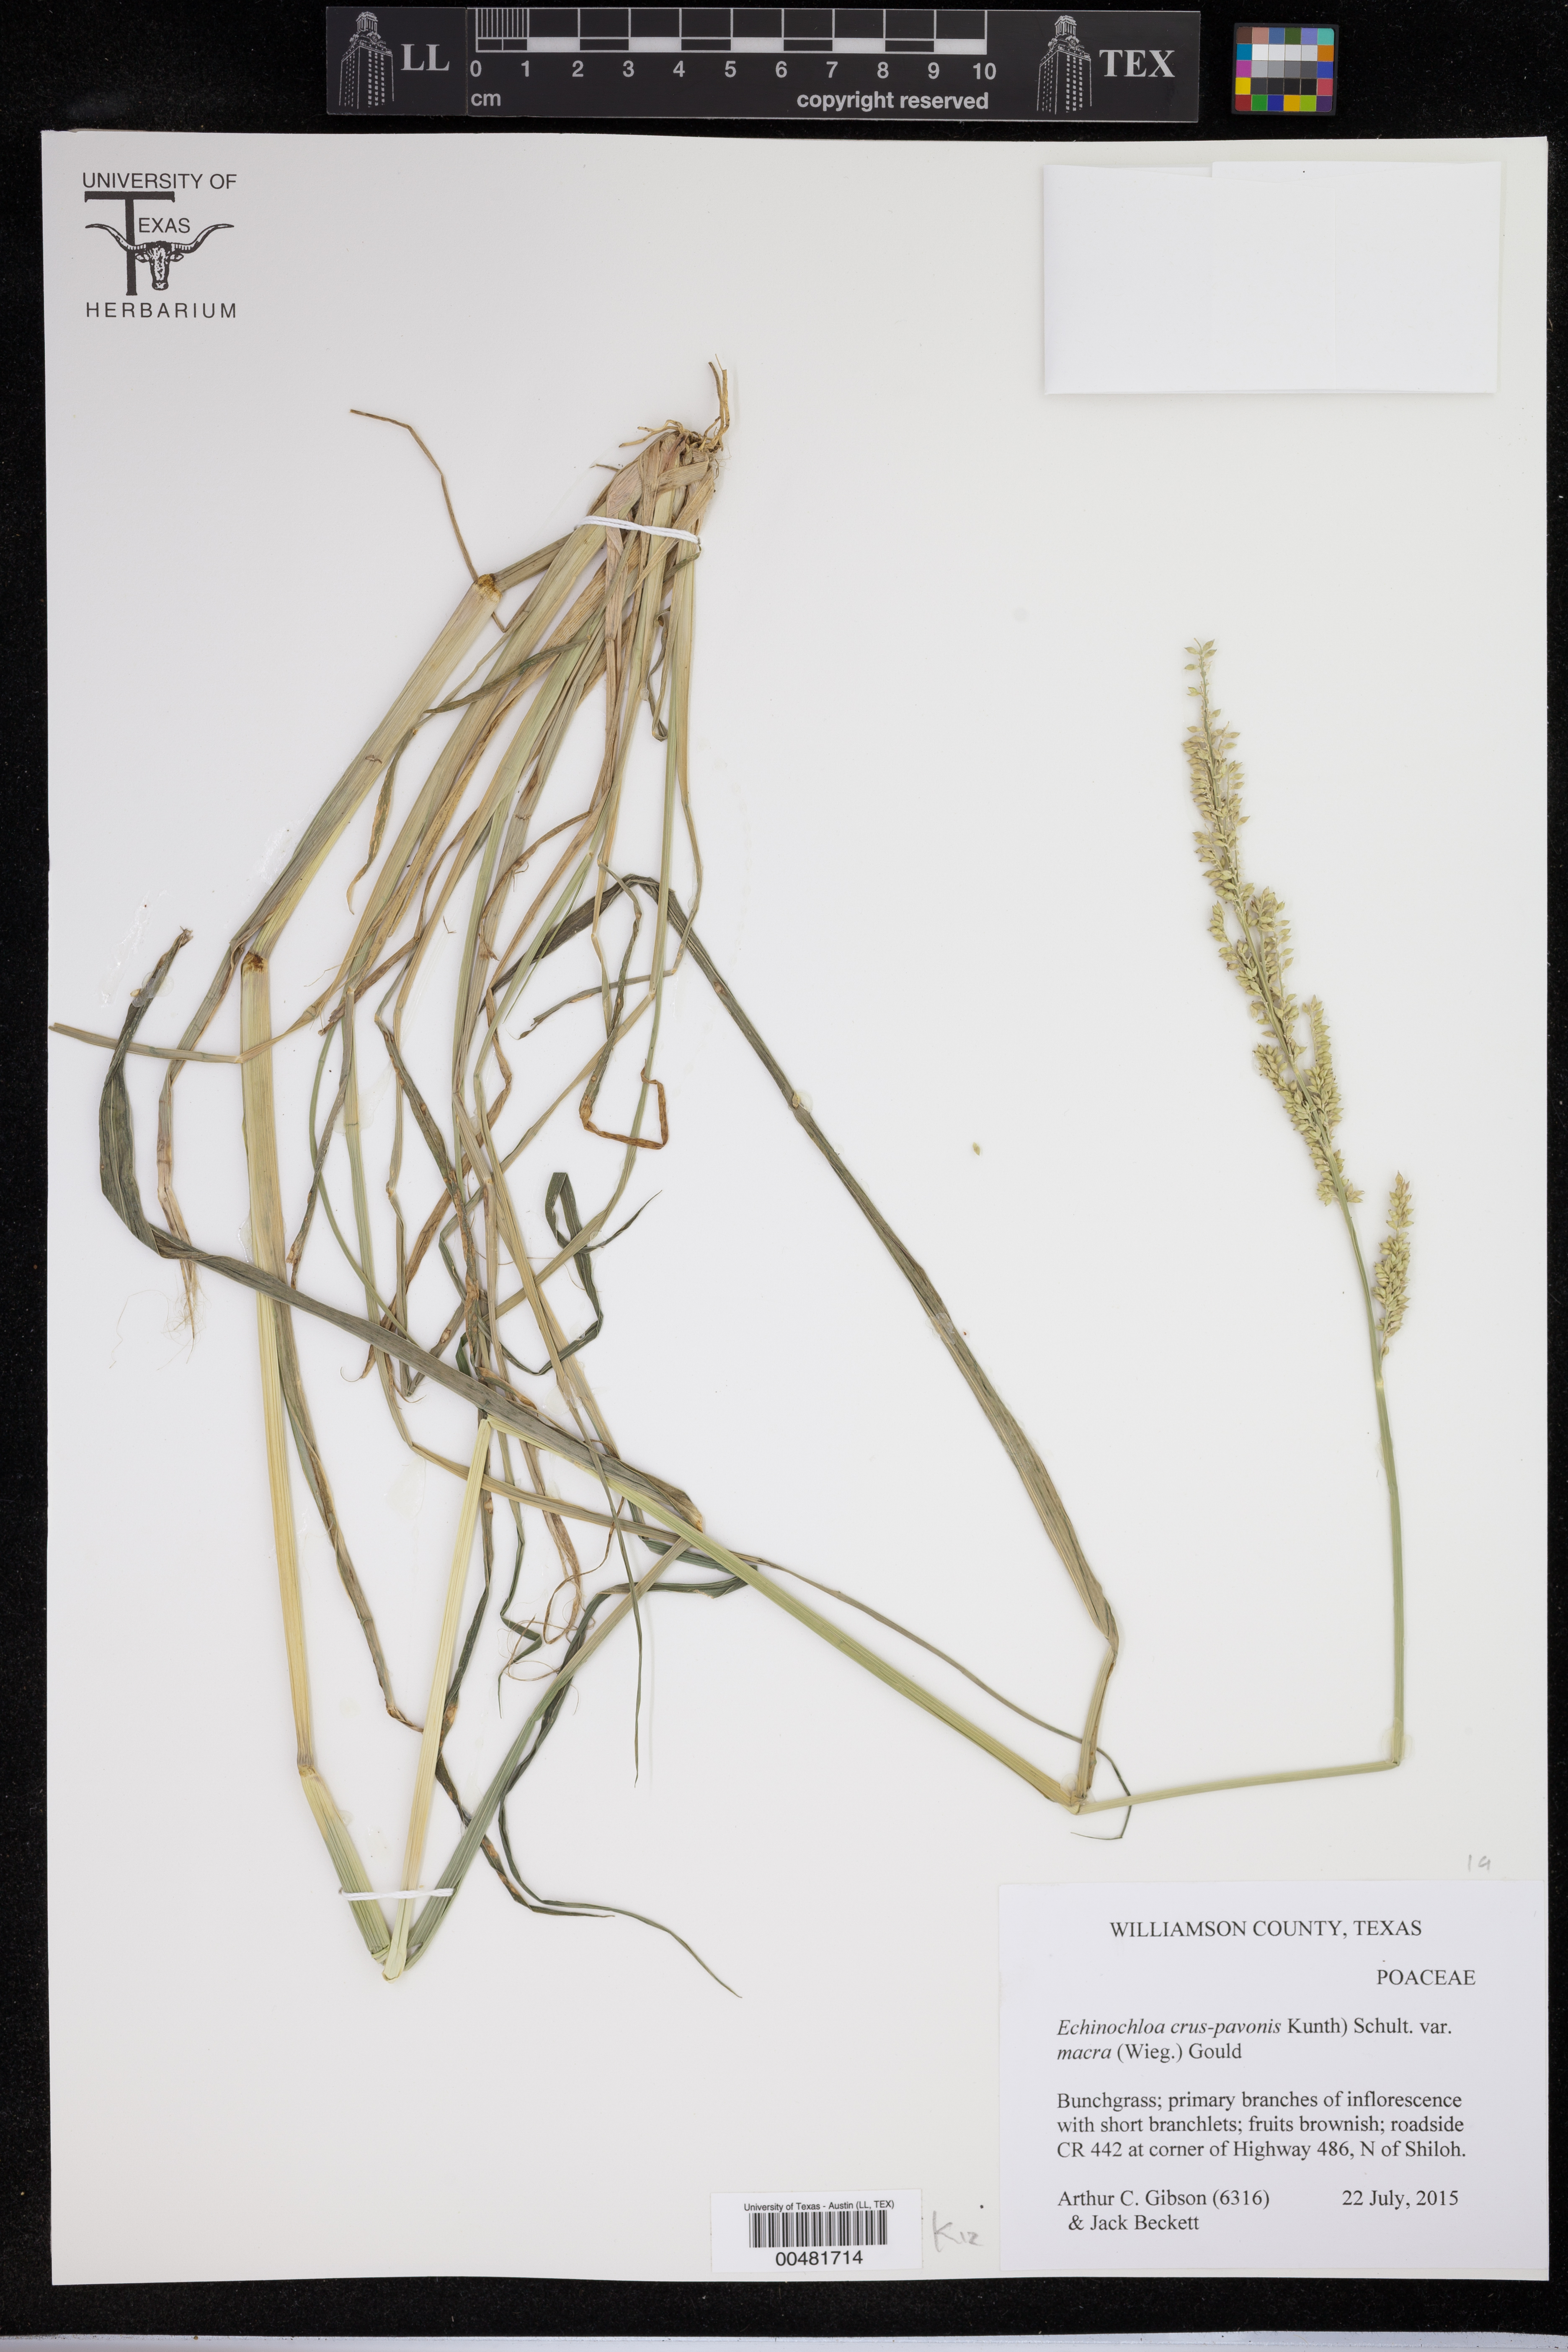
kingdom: Plantae
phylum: Tracheophyta
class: Liliopsida
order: Poales
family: Poaceae
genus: Echinochloa
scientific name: Echinochloa crus-pavonis
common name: Gulf cockspur grass
